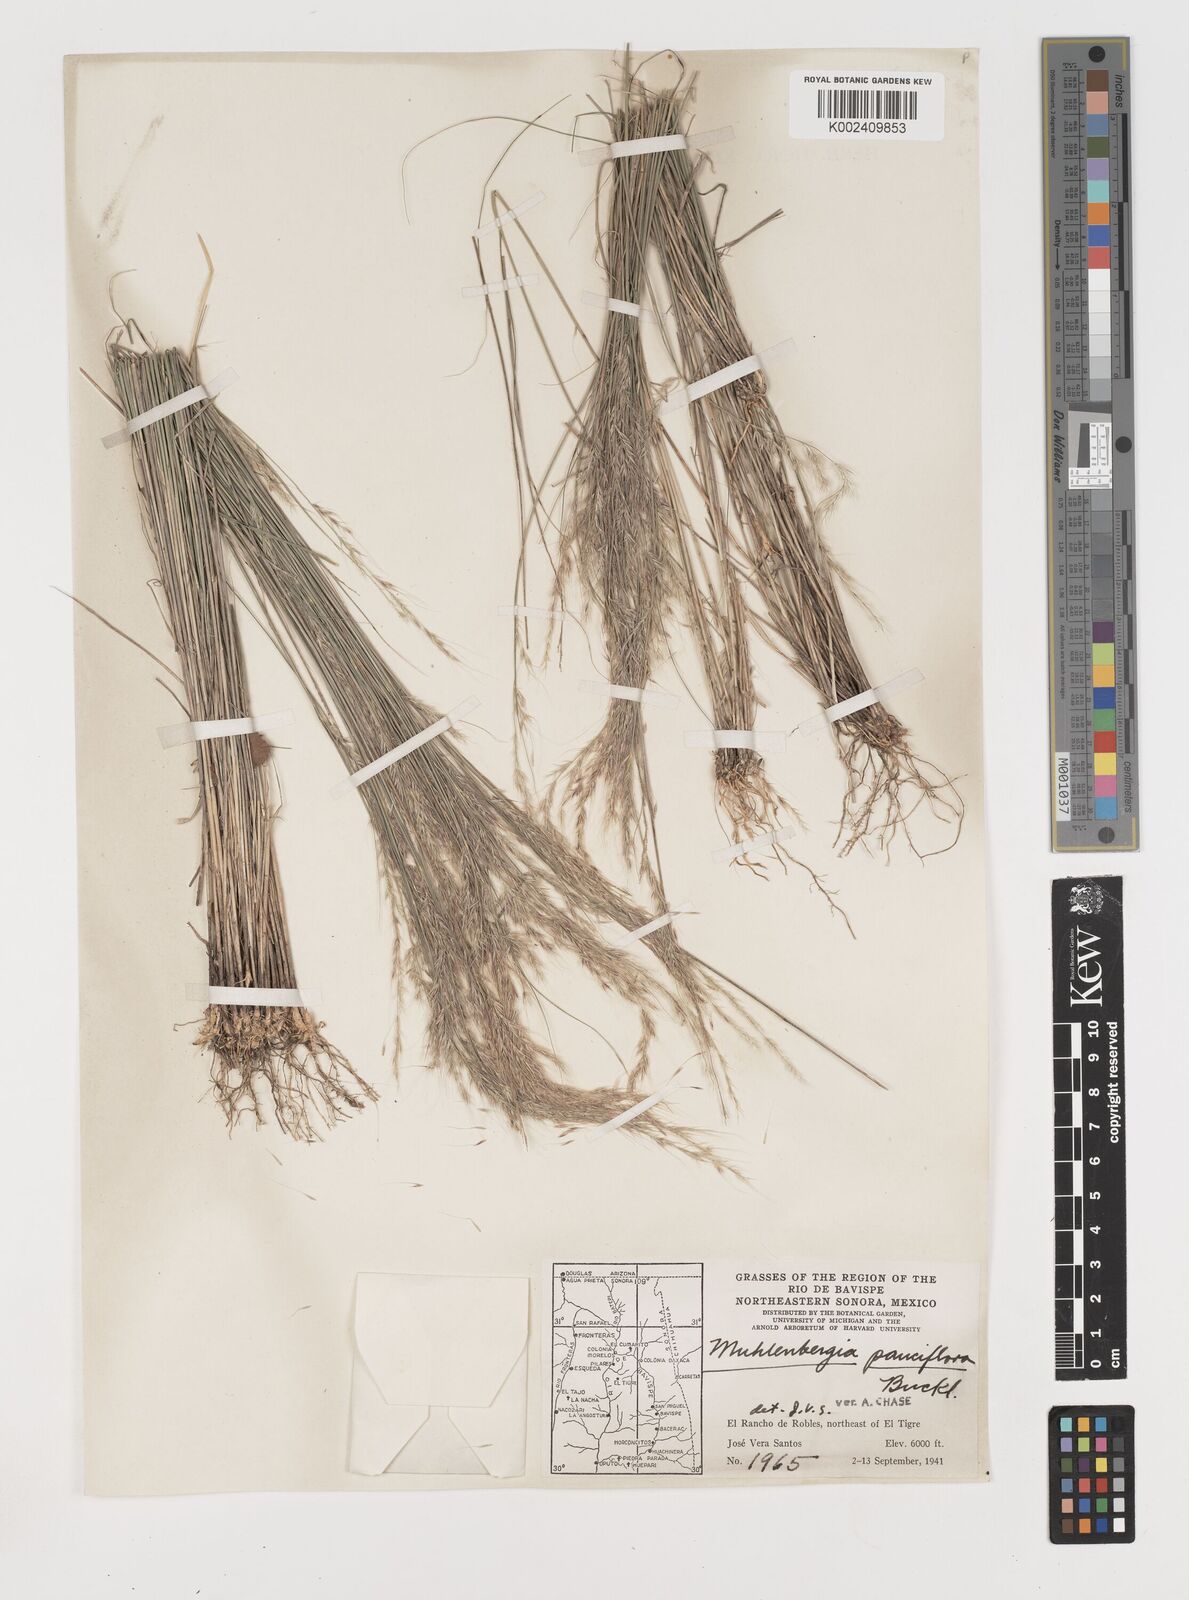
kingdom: Plantae
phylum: Tracheophyta
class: Liliopsida
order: Poales
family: Poaceae
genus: Muhlenbergia
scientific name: Muhlenbergia pauciflora
